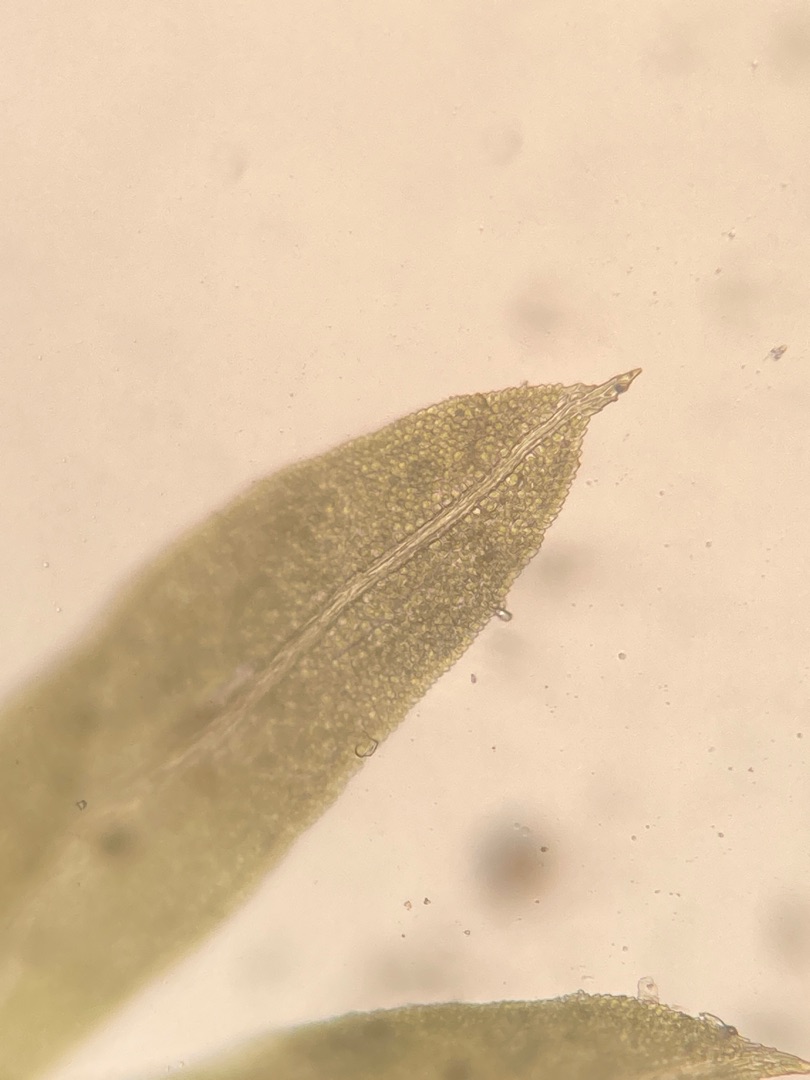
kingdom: Plantae
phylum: Bryophyta
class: Bryopsida
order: Dicranales
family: Fissidentaceae
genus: Fissidens
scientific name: Fissidens taxifolius
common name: Taksbladet rademos
